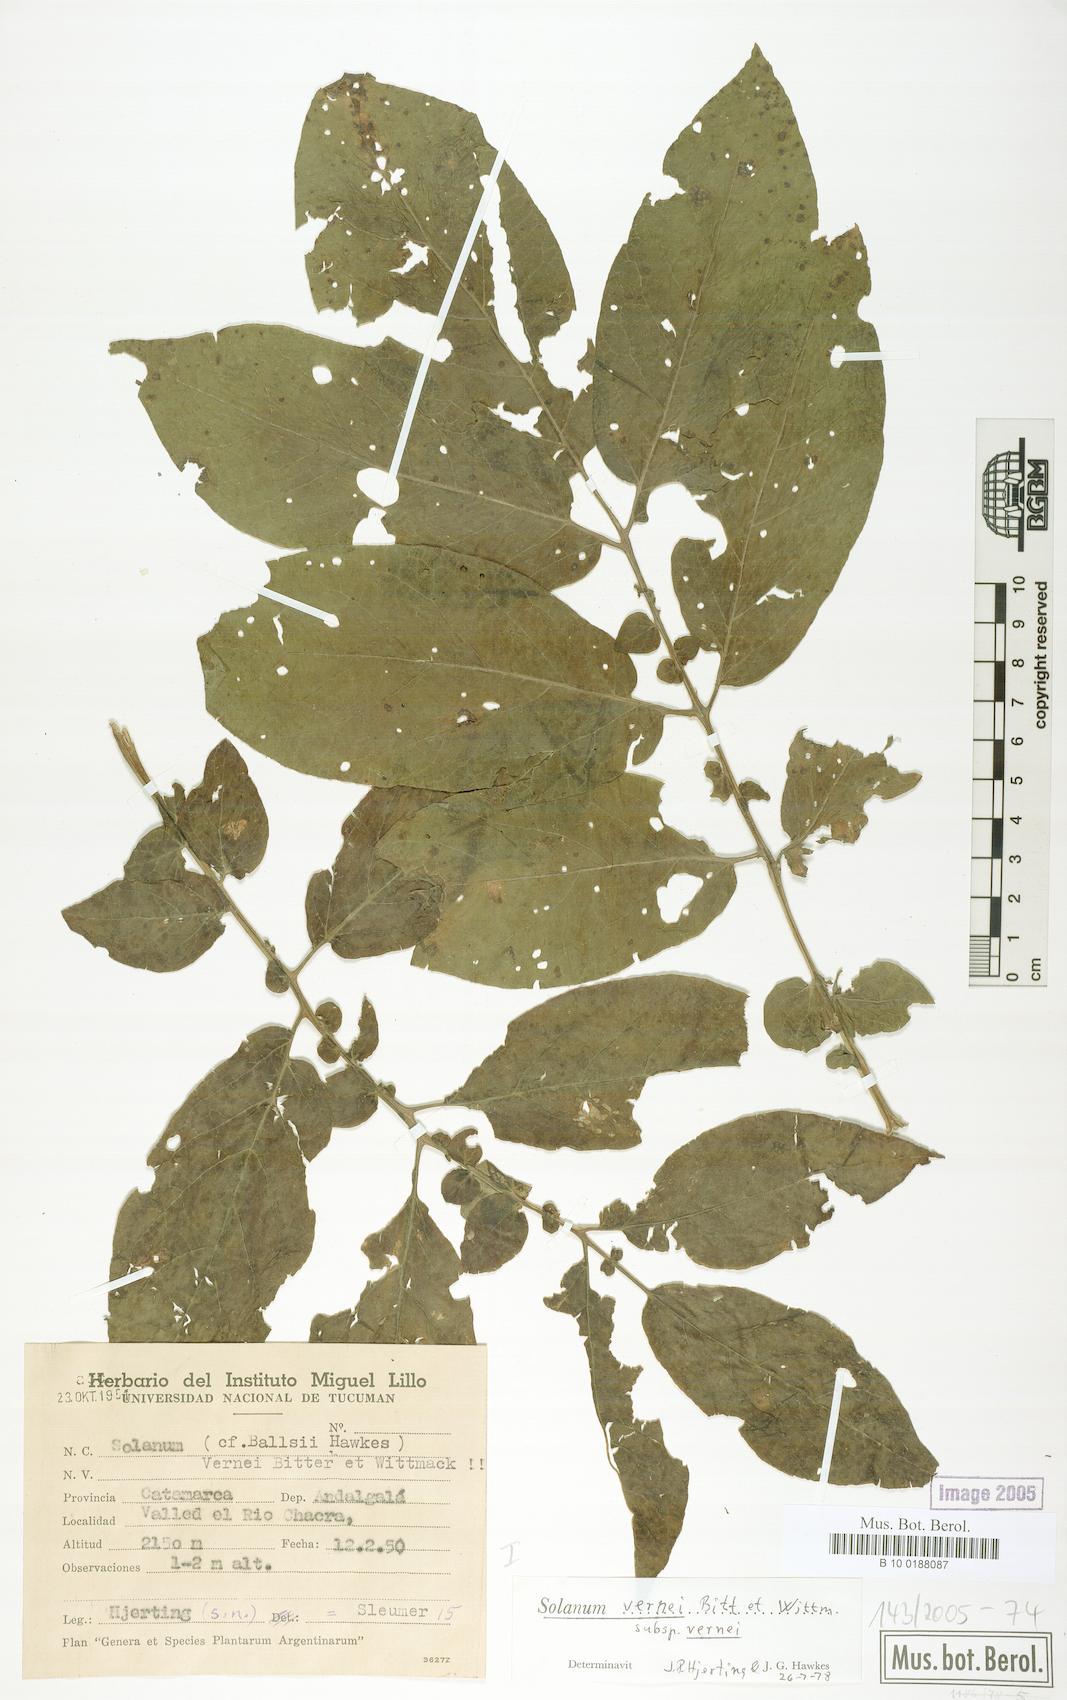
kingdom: Plantae
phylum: Tracheophyta
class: Magnoliopsida
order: Solanales
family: Solanaceae
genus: Solanum
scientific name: Solanum vernei
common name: Purple potato
